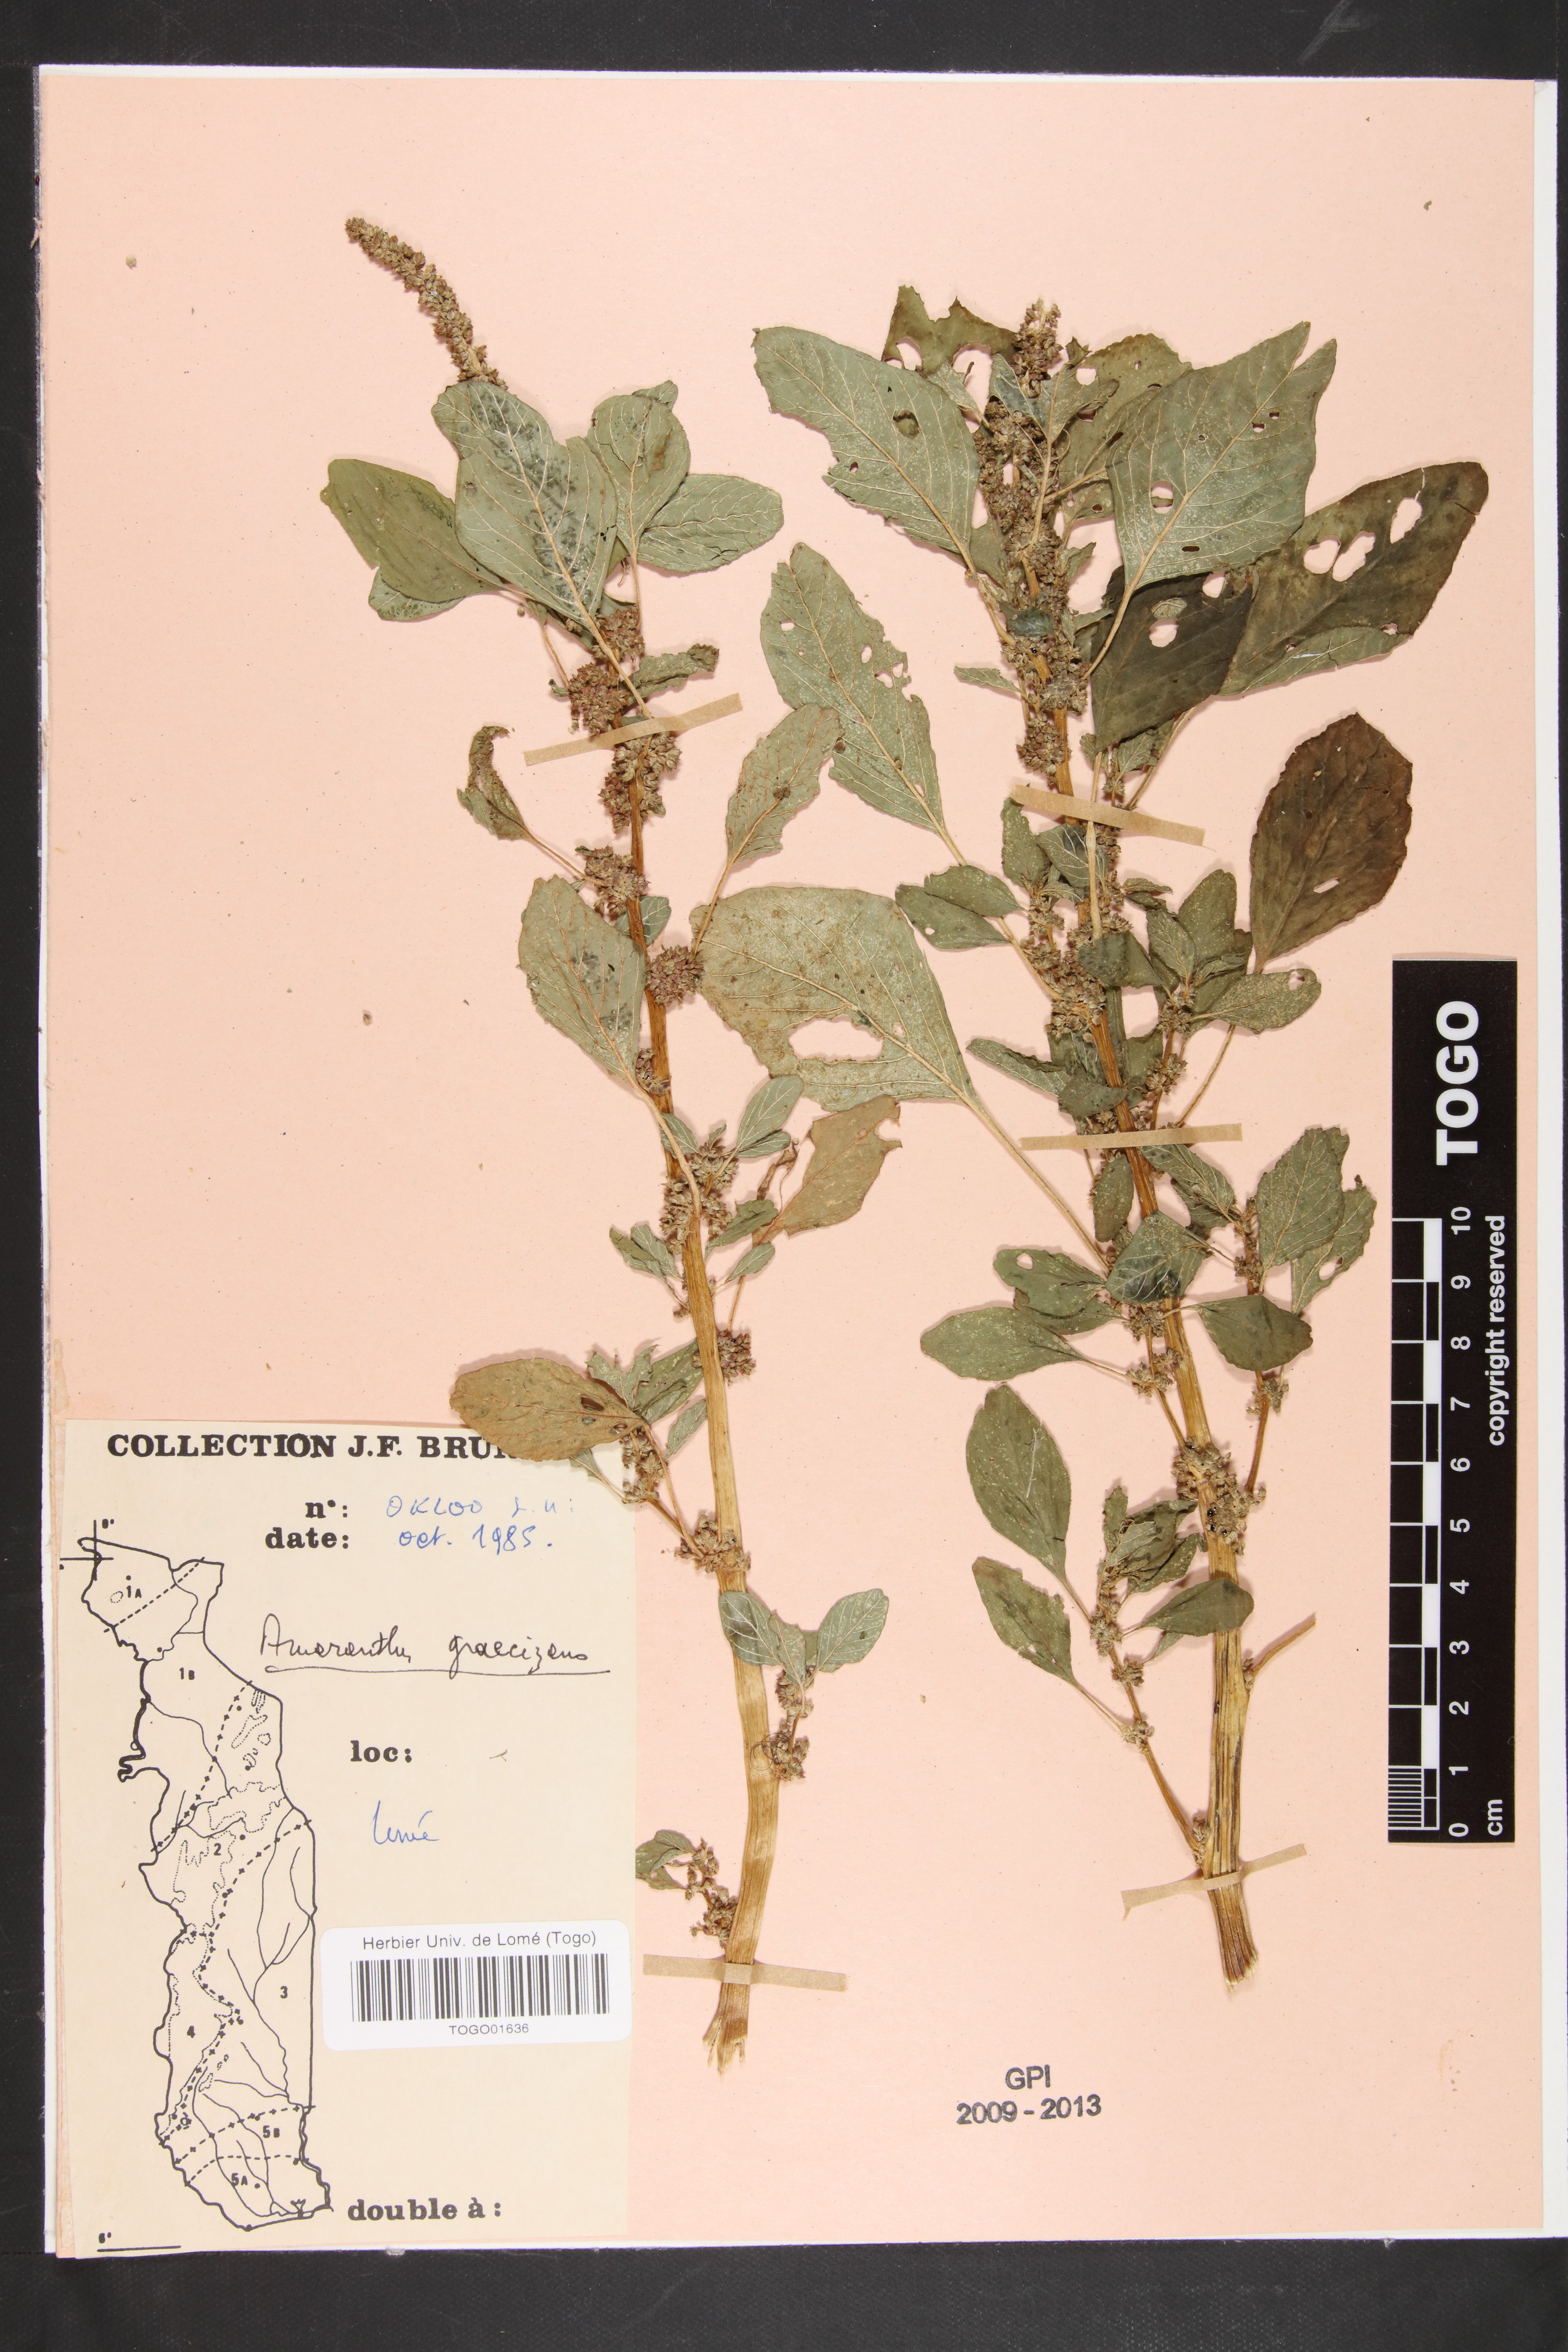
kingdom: Plantae
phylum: Tracheophyta
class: Magnoliopsida
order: Caryophyllales
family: Amaranthaceae
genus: Amaranthus
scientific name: Amaranthus graecizans
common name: Mediterranean amaranth
